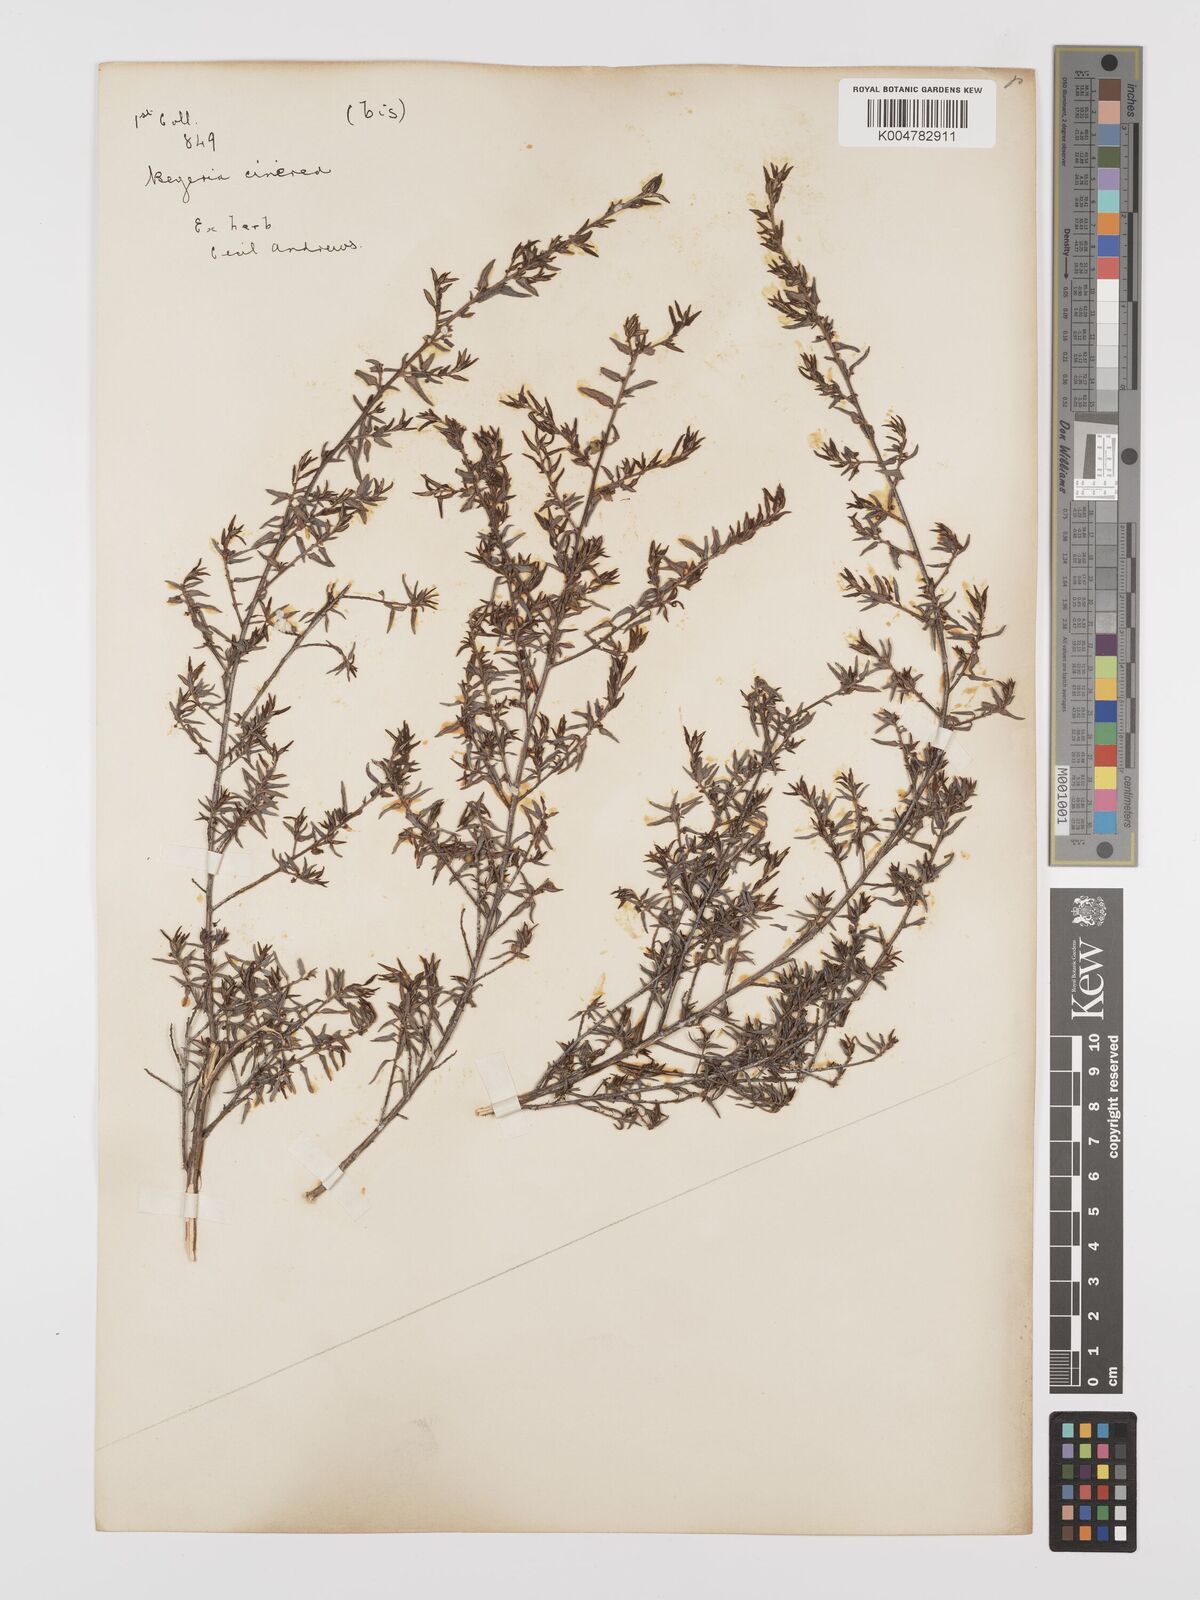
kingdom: Plantae
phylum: Tracheophyta
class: Magnoliopsida
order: Malpighiales
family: Euphorbiaceae
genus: Beyeria
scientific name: Beyeria cinerea
